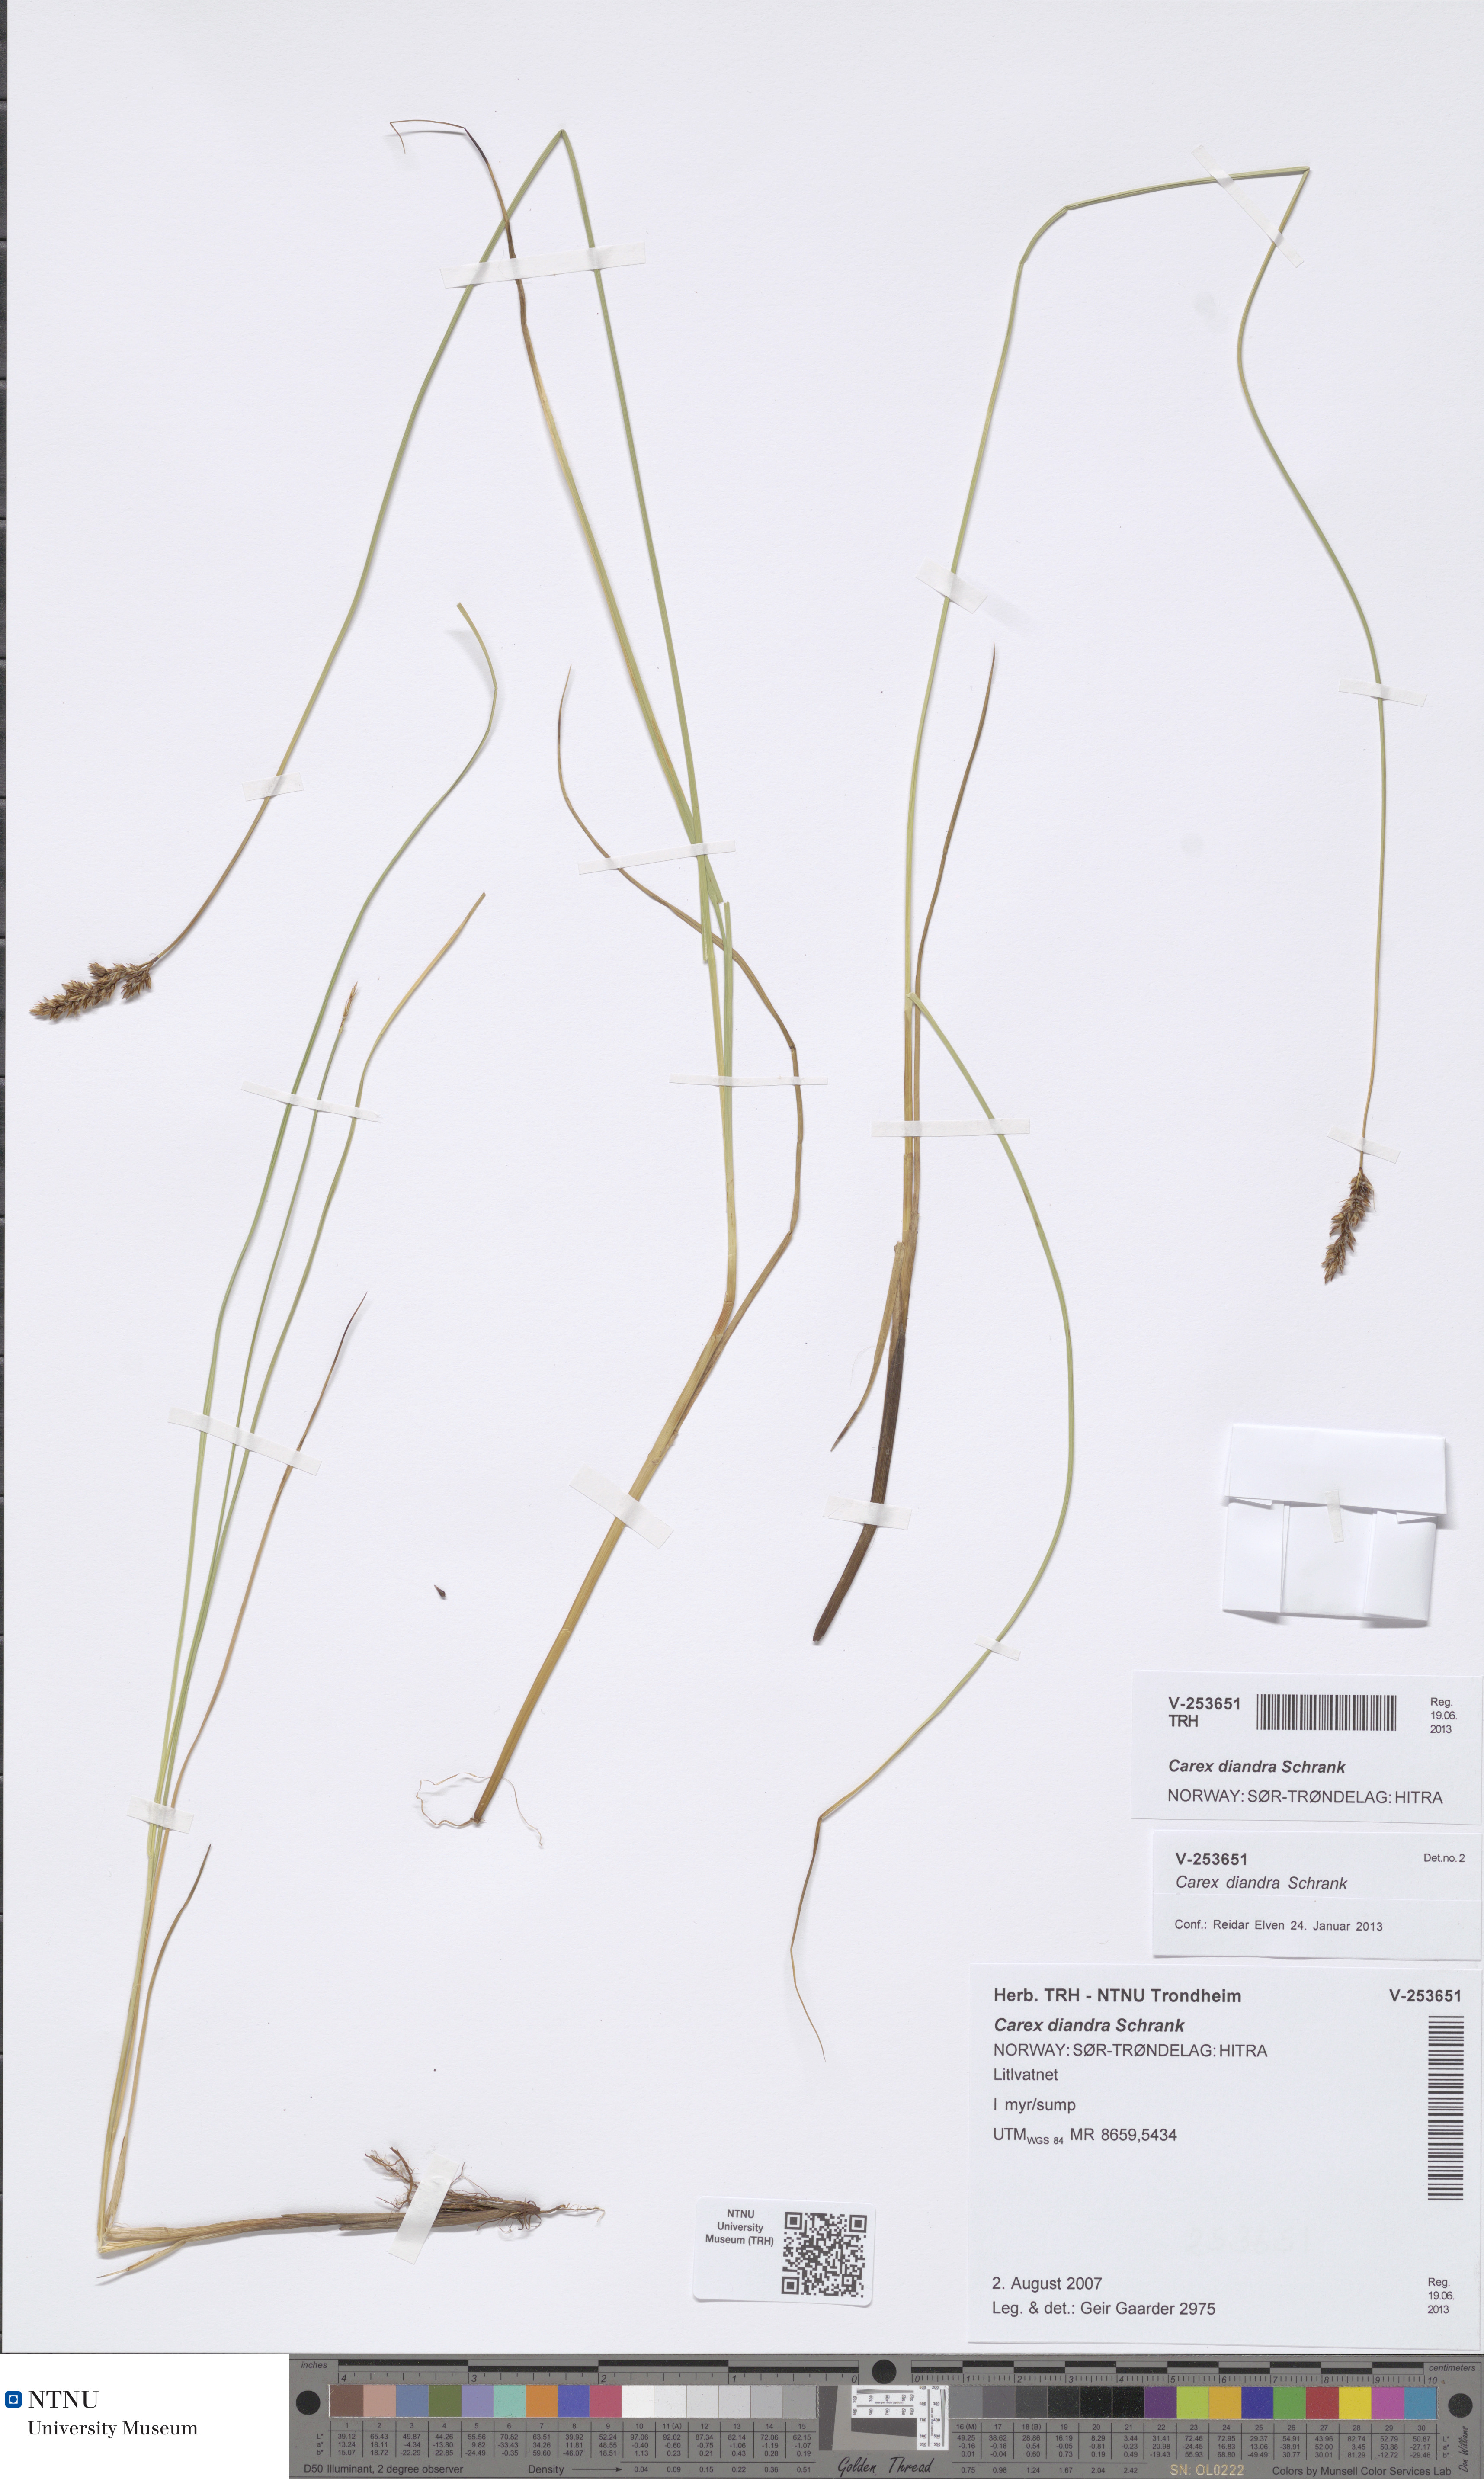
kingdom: Plantae
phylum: Tracheophyta
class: Liliopsida
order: Poales
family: Cyperaceae
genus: Carex
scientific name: Carex diandra
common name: Lesser tussock-sedge
